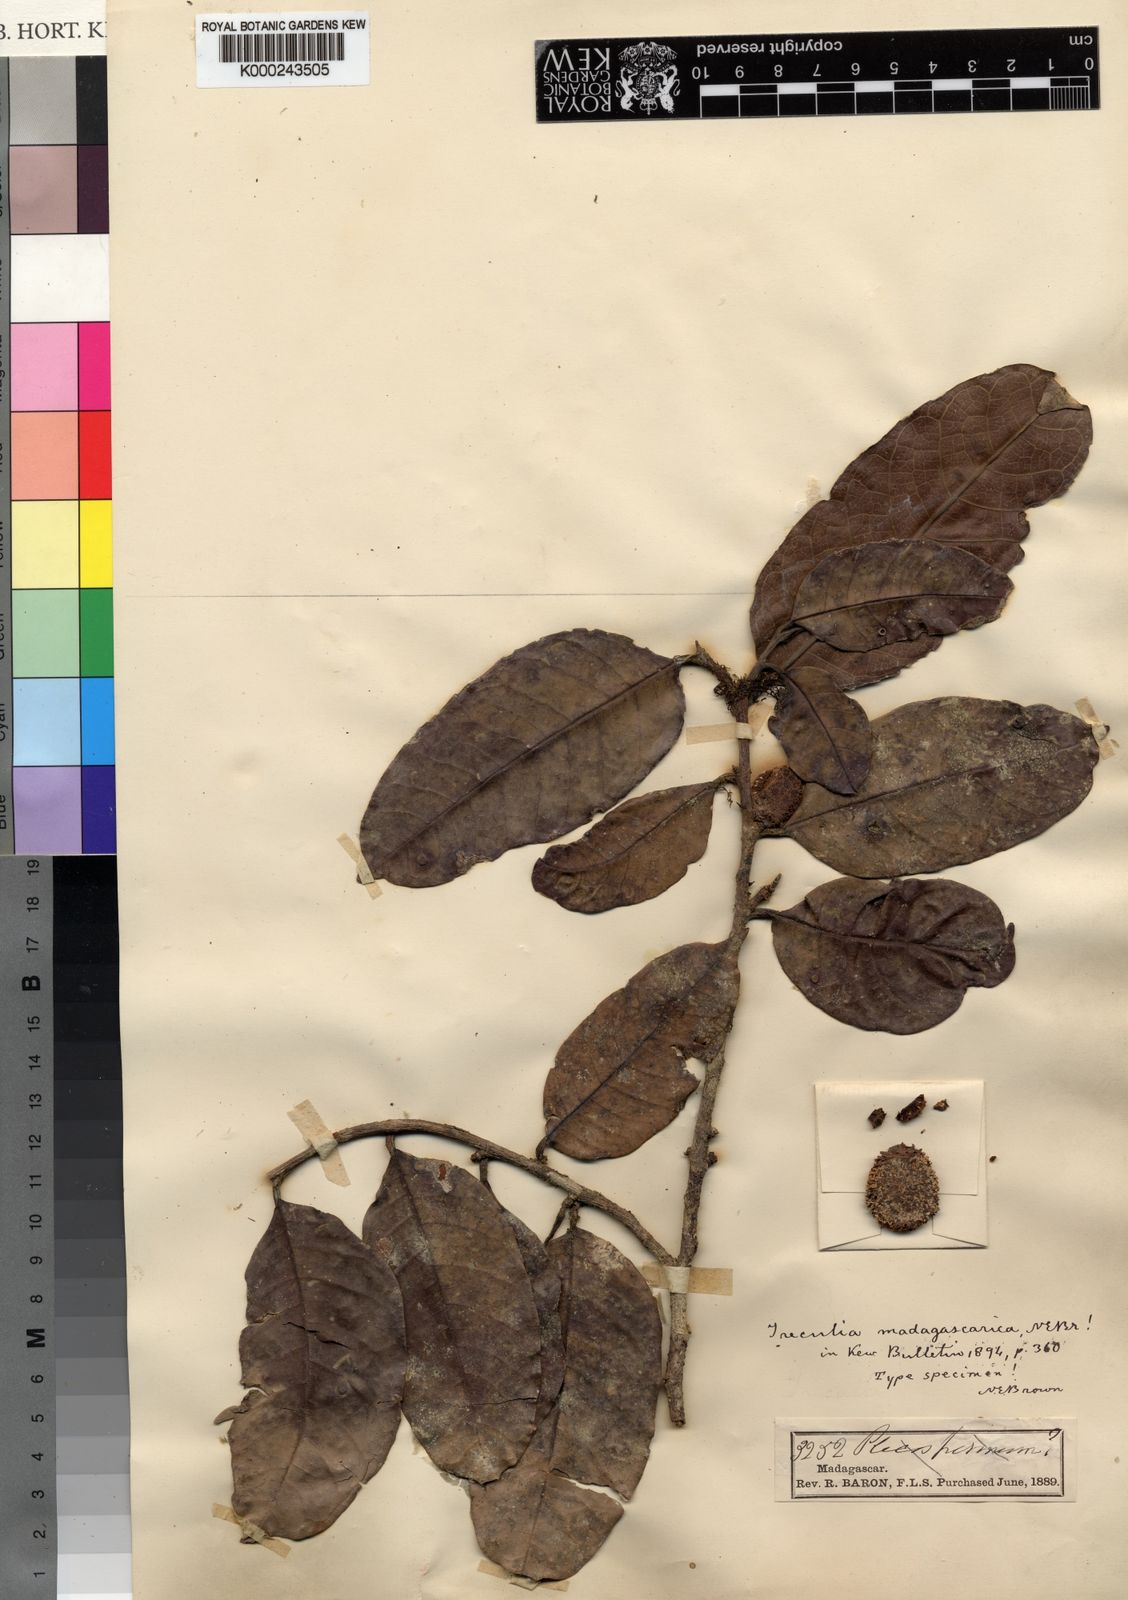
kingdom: Plantae
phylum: Tracheophyta
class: Magnoliopsida
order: Rosales
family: Moraceae
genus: Treculia
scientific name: Treculia madagascarica
